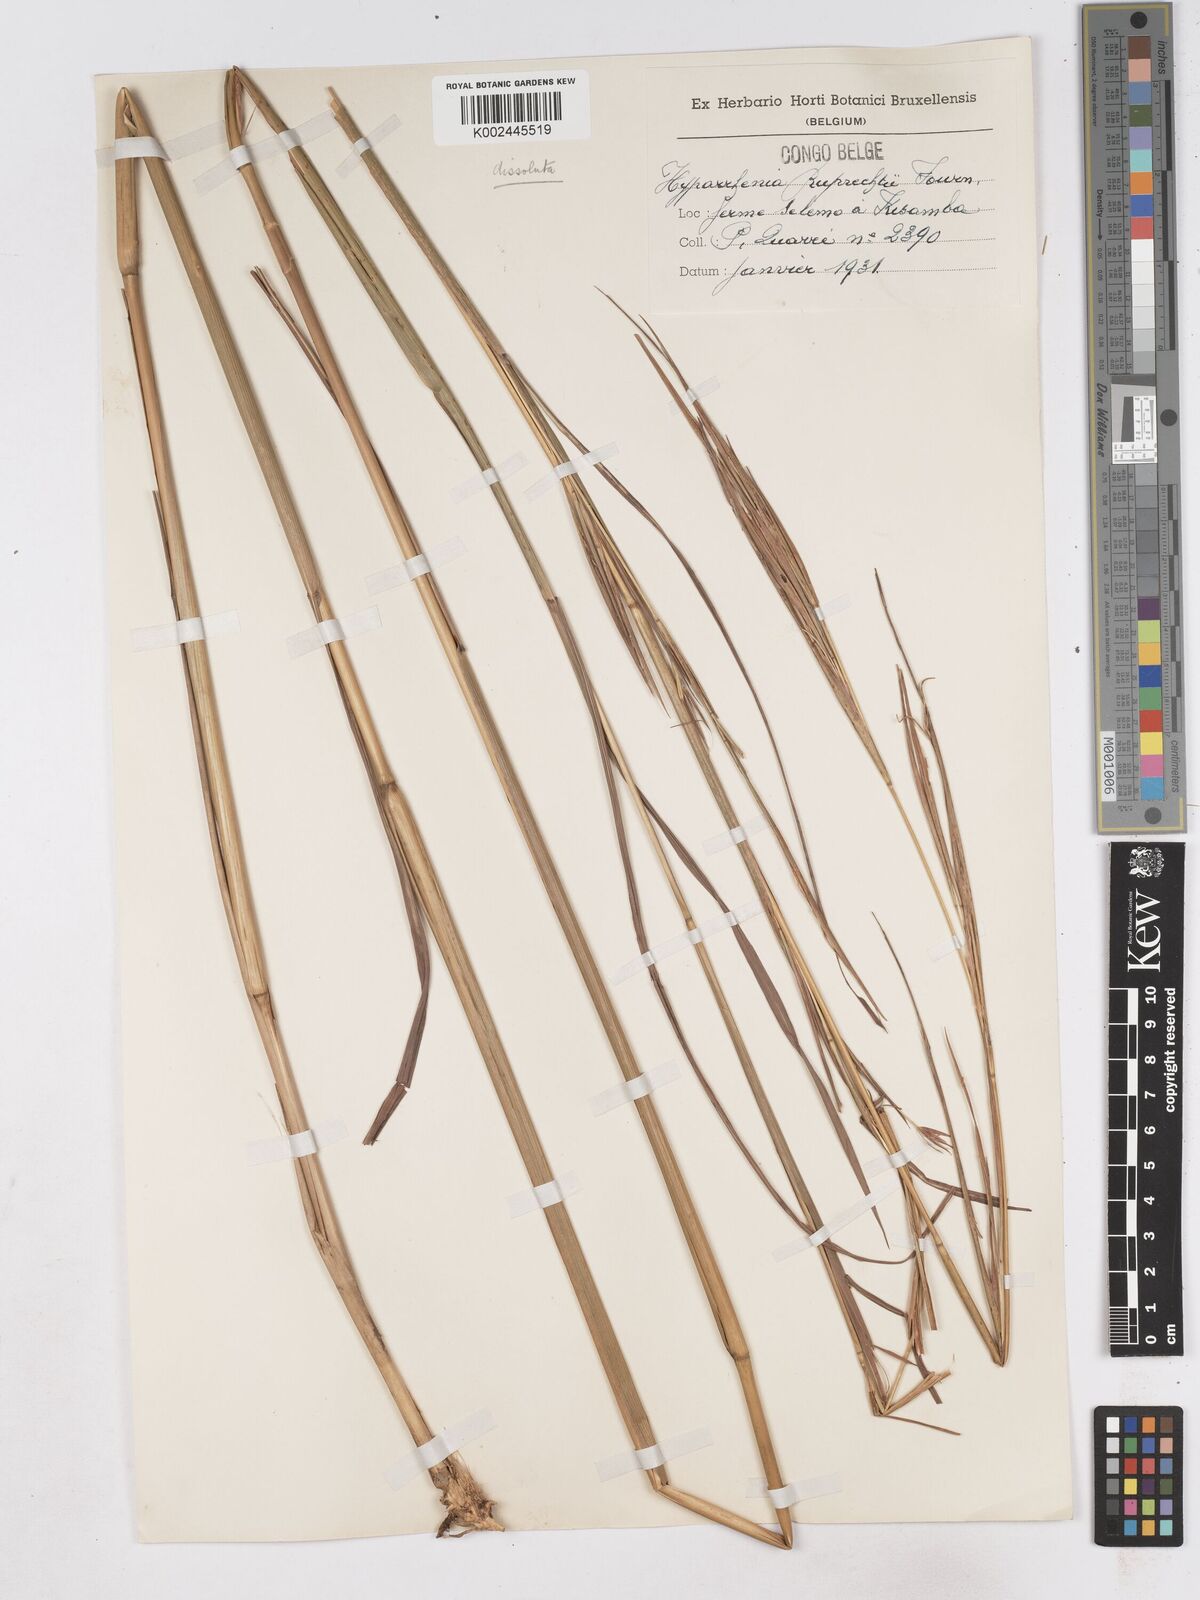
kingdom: Plantae
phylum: Tracheophyta
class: Liliopsida
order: Poales
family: Poaceae
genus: Hyperthelia
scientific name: Hyperthelia dissoluta
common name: Yellow thatching grass
